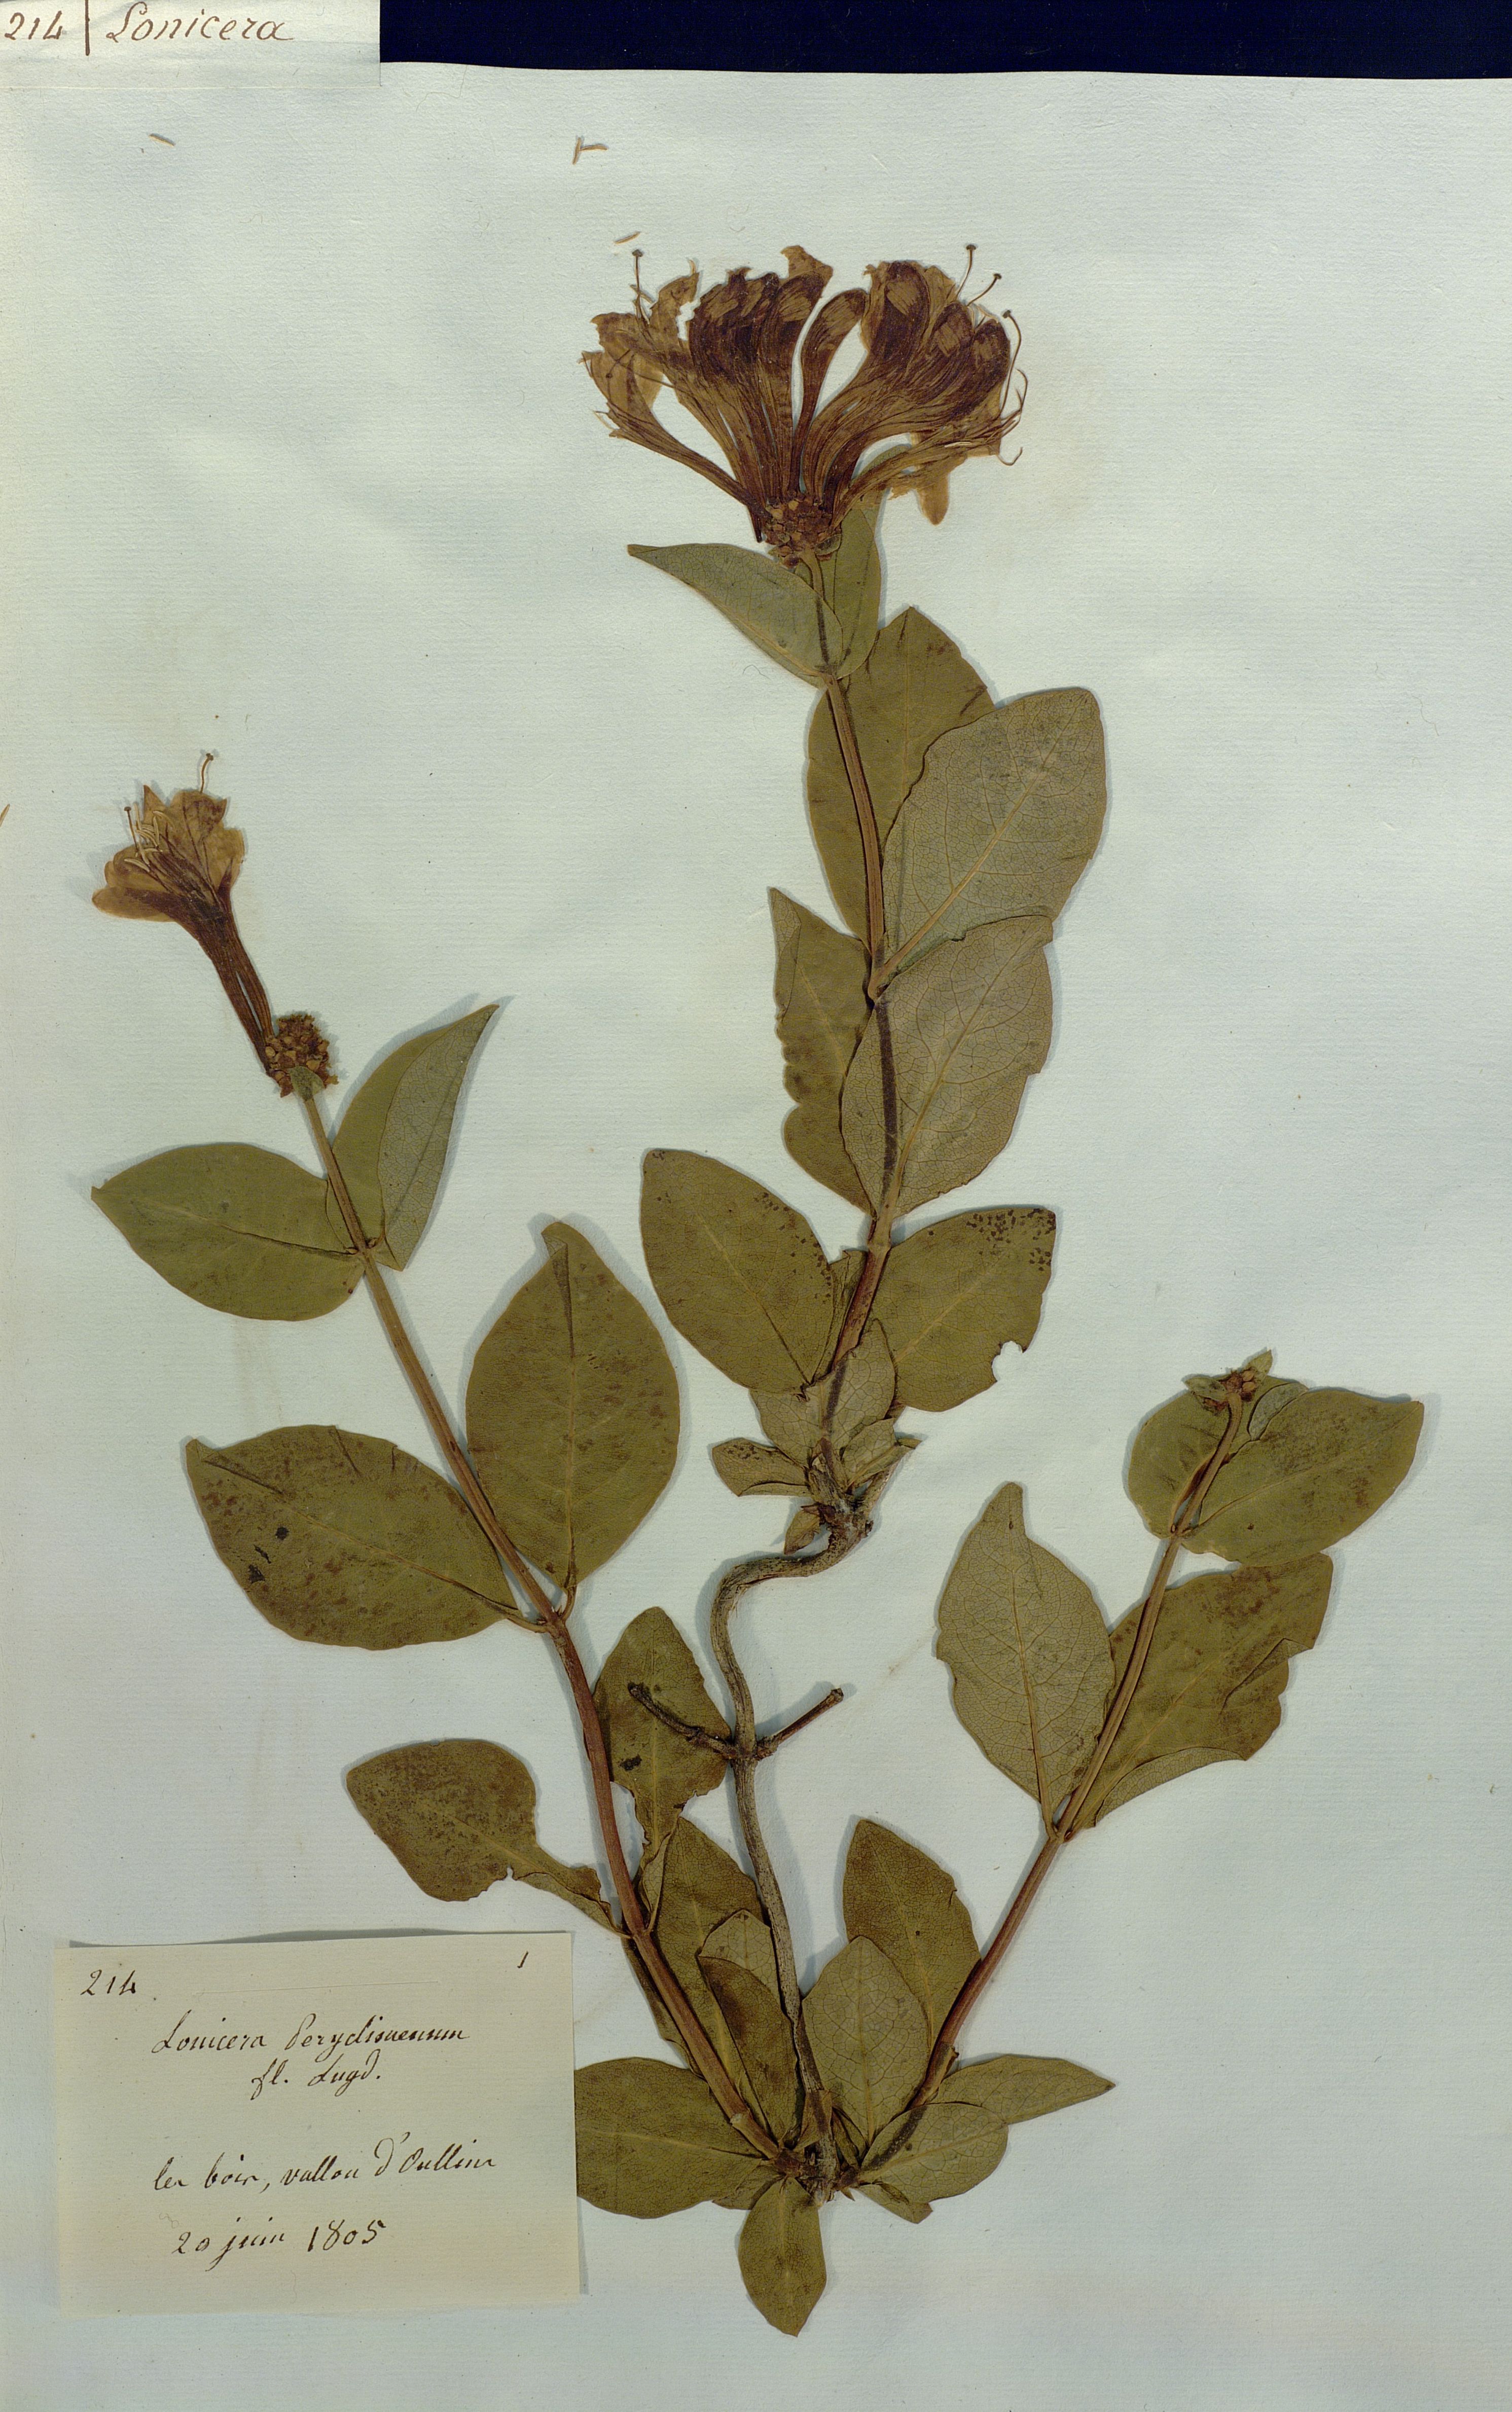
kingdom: Plantae
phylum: Tracheophyta
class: Magnoliopsida
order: Dipsacales
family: Caprifoliaceae
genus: Lonicera
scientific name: Lonicera periclymenum
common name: European honeysuckle
